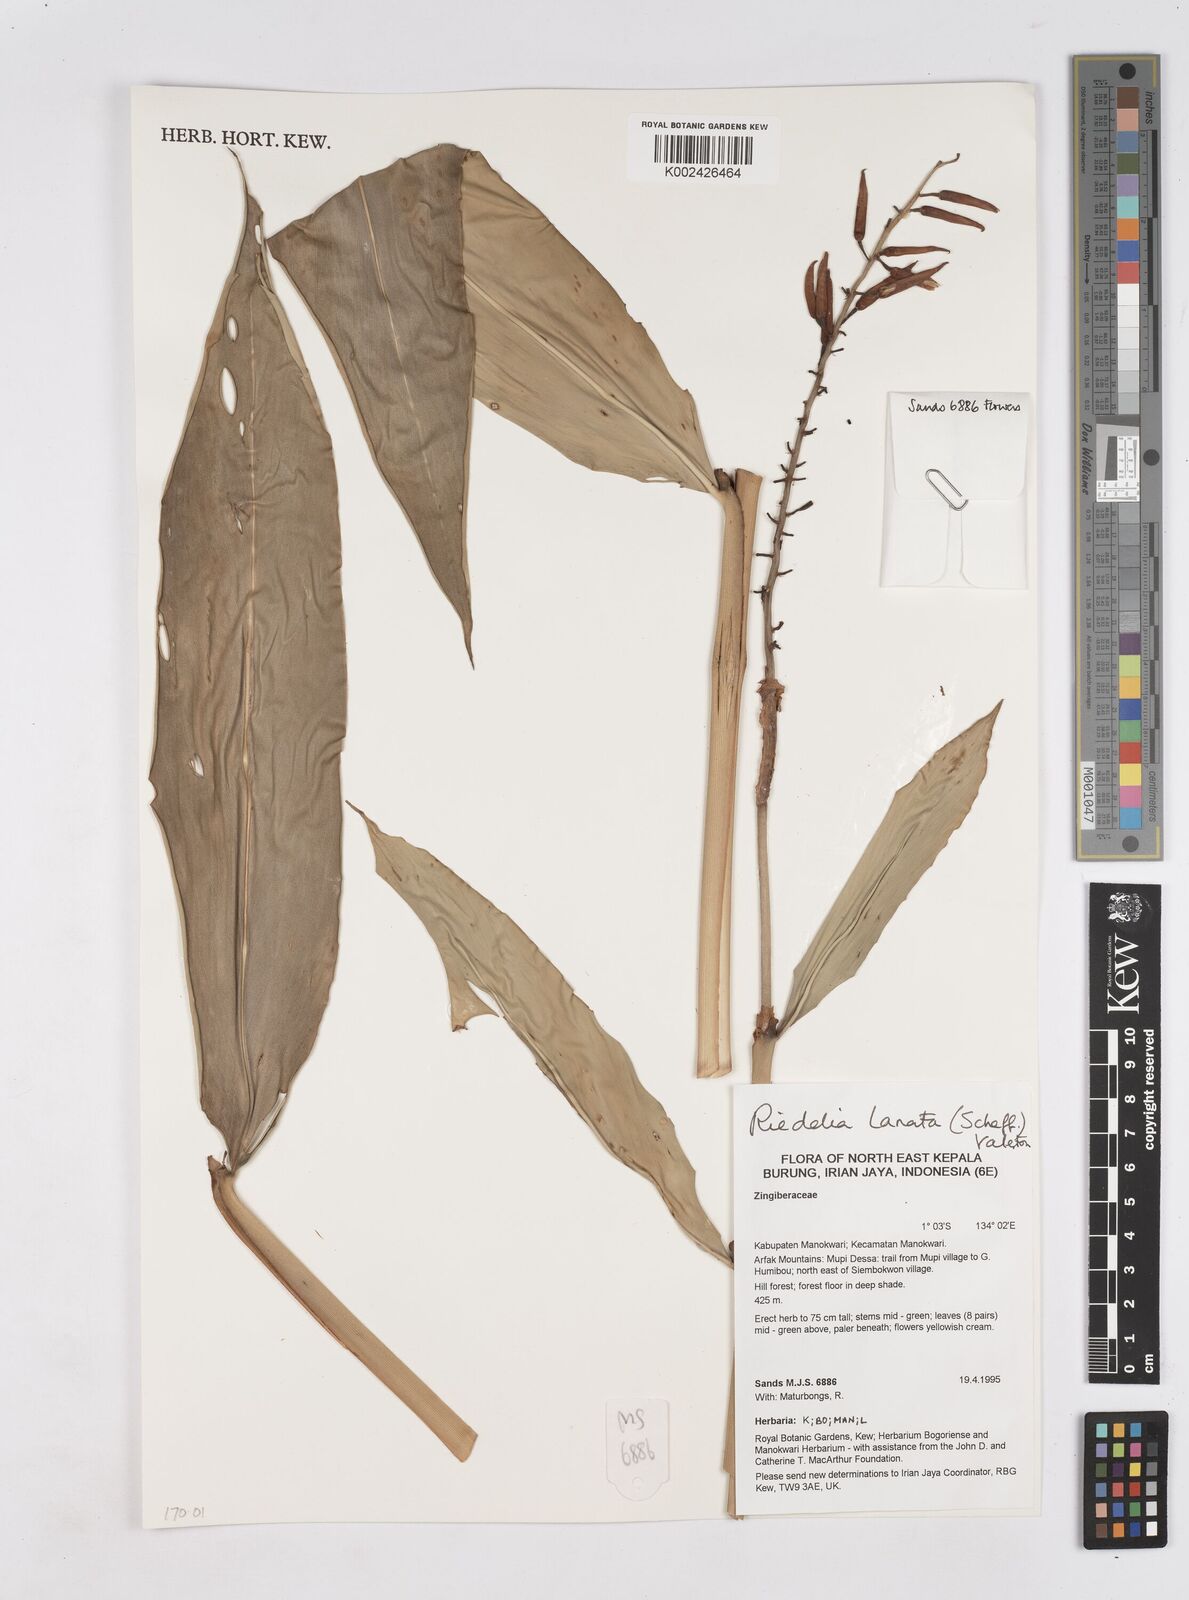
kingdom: Plantae
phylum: Tracheophyta
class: Liliopsida
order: Zingiberales
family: Zingiberaceae
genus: Riedelia
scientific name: Riedelia lanata
